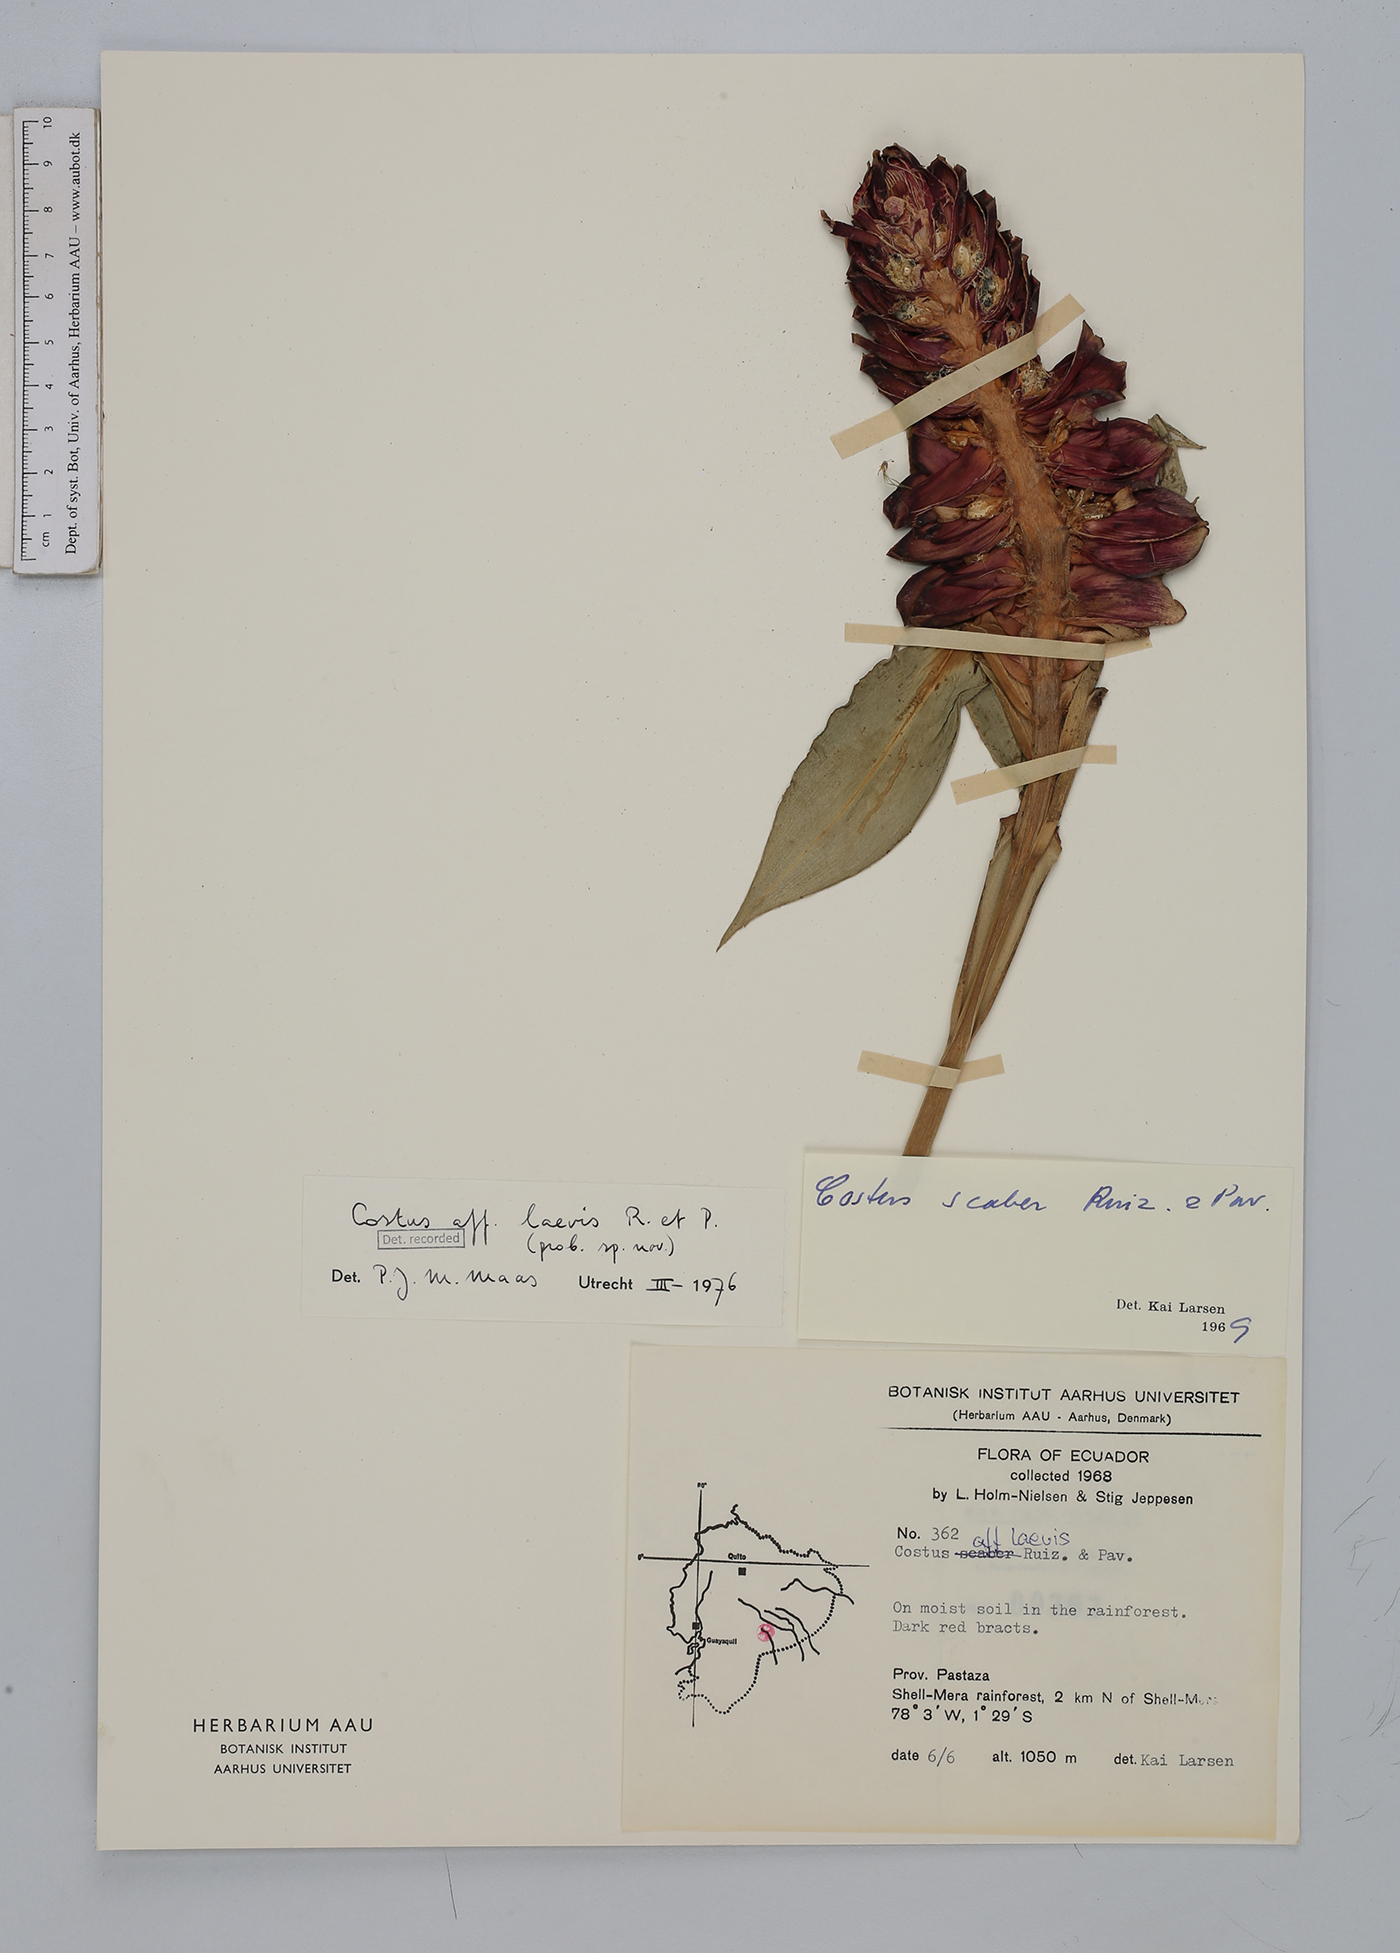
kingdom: Plantae
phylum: Tracheophyta
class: Liliopsida
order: Zingiberales
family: Costaceae
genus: Costus
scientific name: Costus laevis
